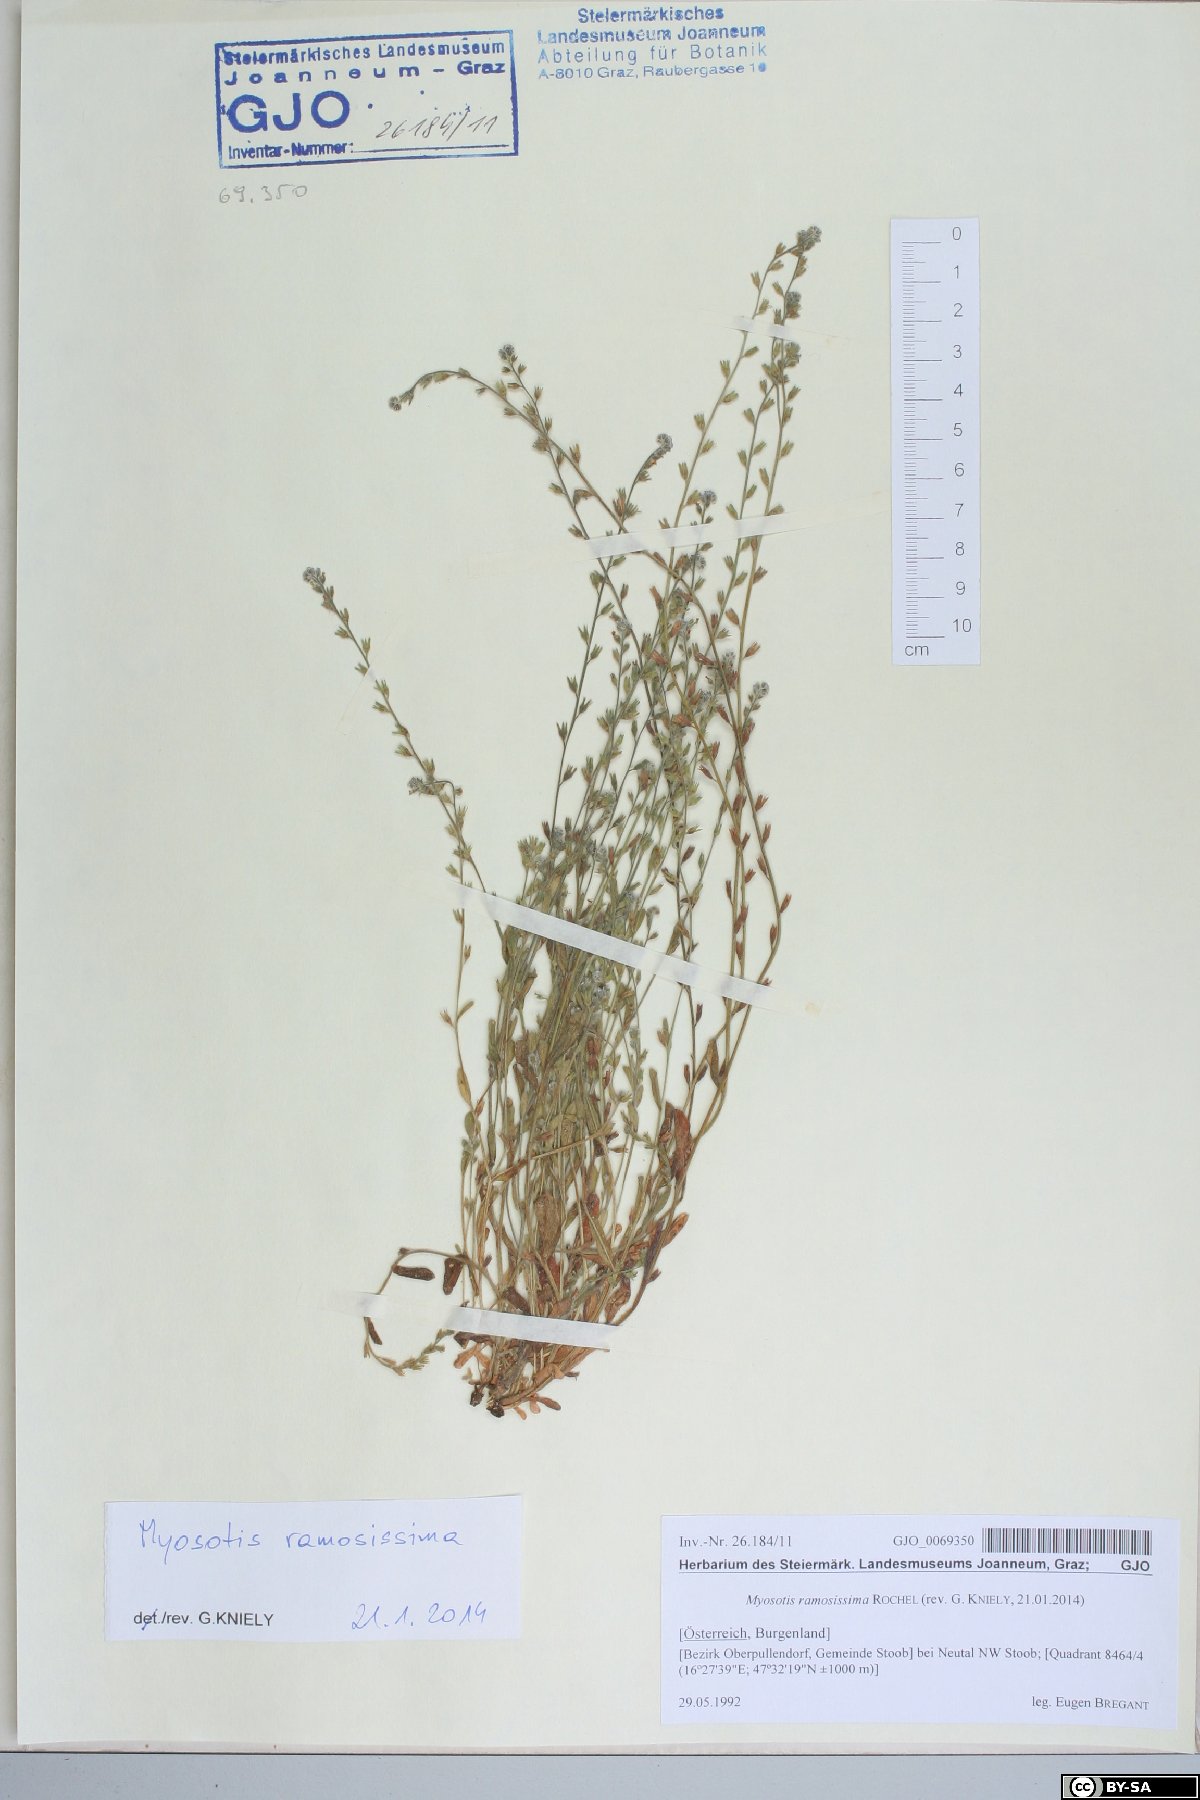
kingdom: Plantae
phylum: Tracheophyta
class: Magnoliopsida
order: Boraginales
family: Boraginaceae
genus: Myosotis
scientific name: Myosotis ramosissima
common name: Early forget-me-not
